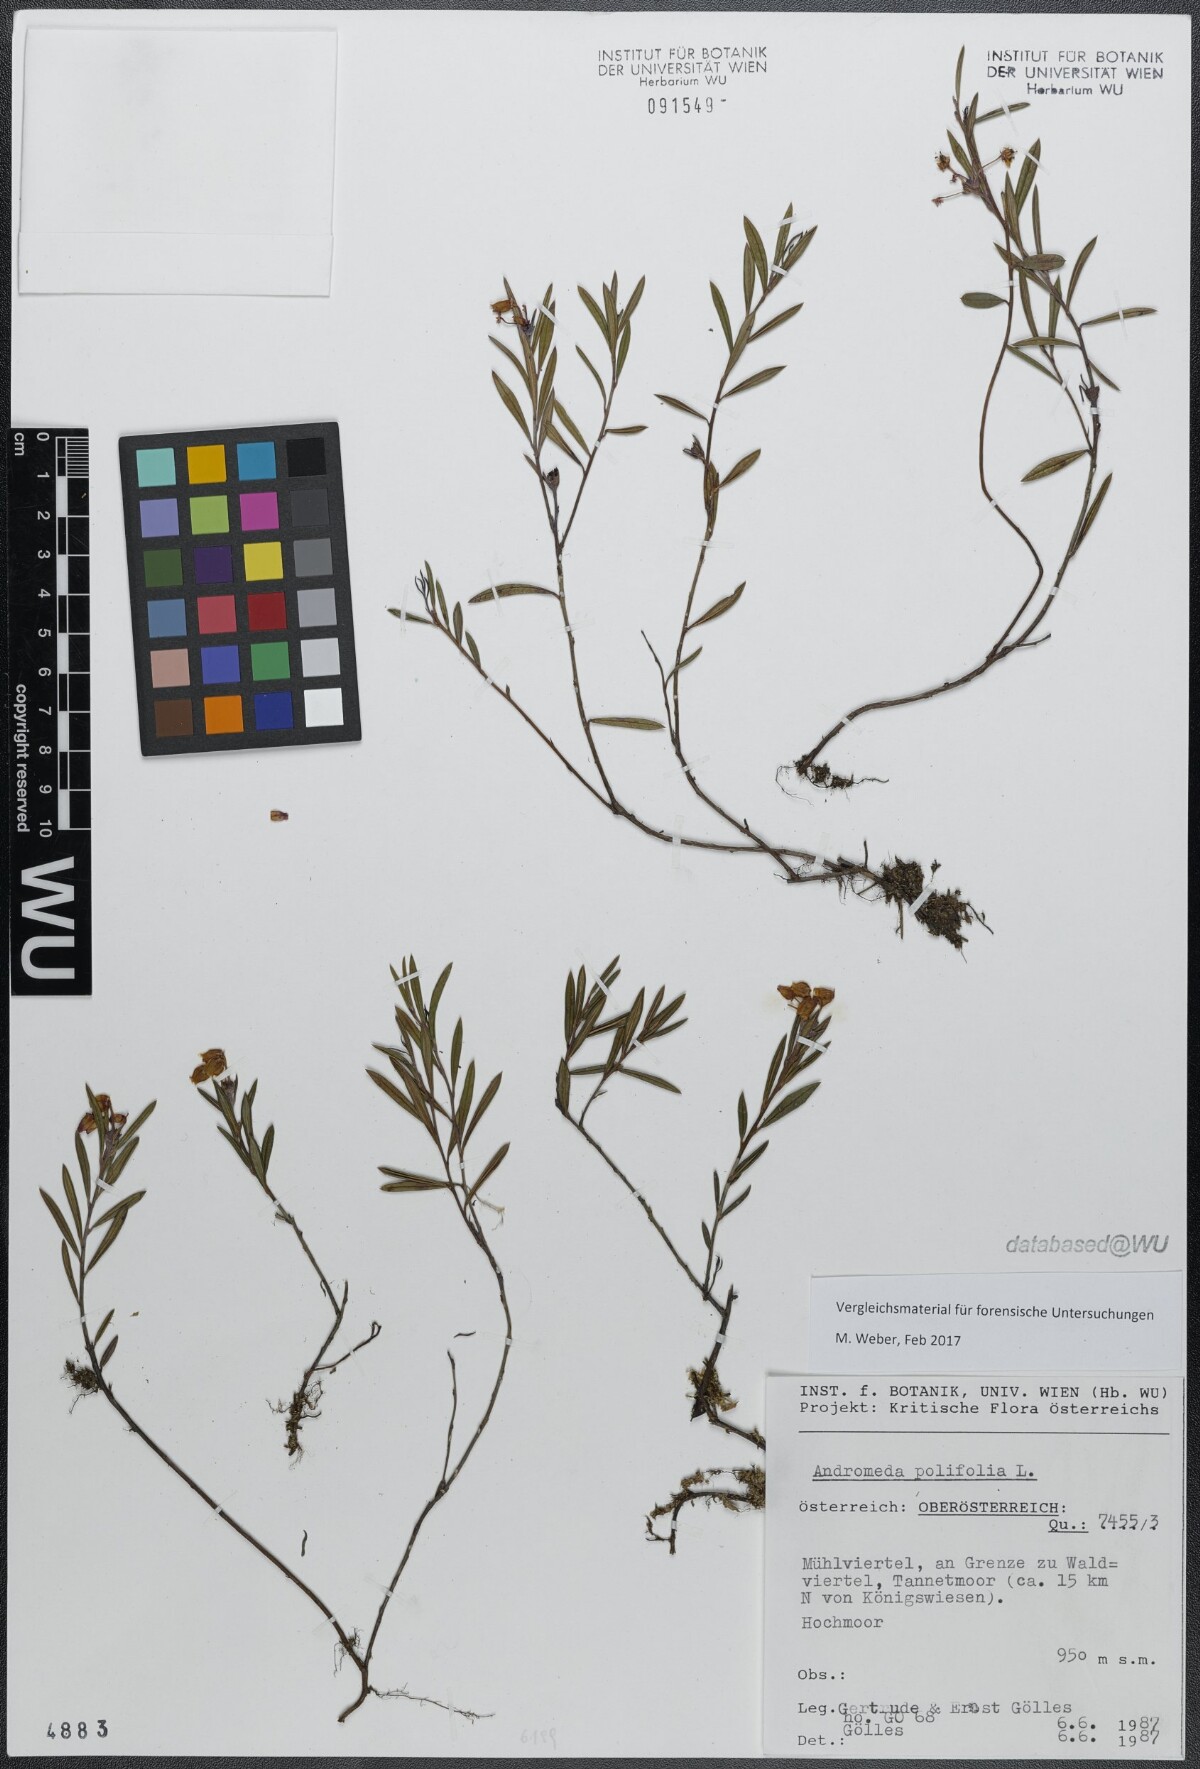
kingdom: Plantae
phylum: Tracheophyta
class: Magnoliopsida
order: Ericales
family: Ericaceae
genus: Andromeda
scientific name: Andromeda polifolia
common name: Bog-rosemary
